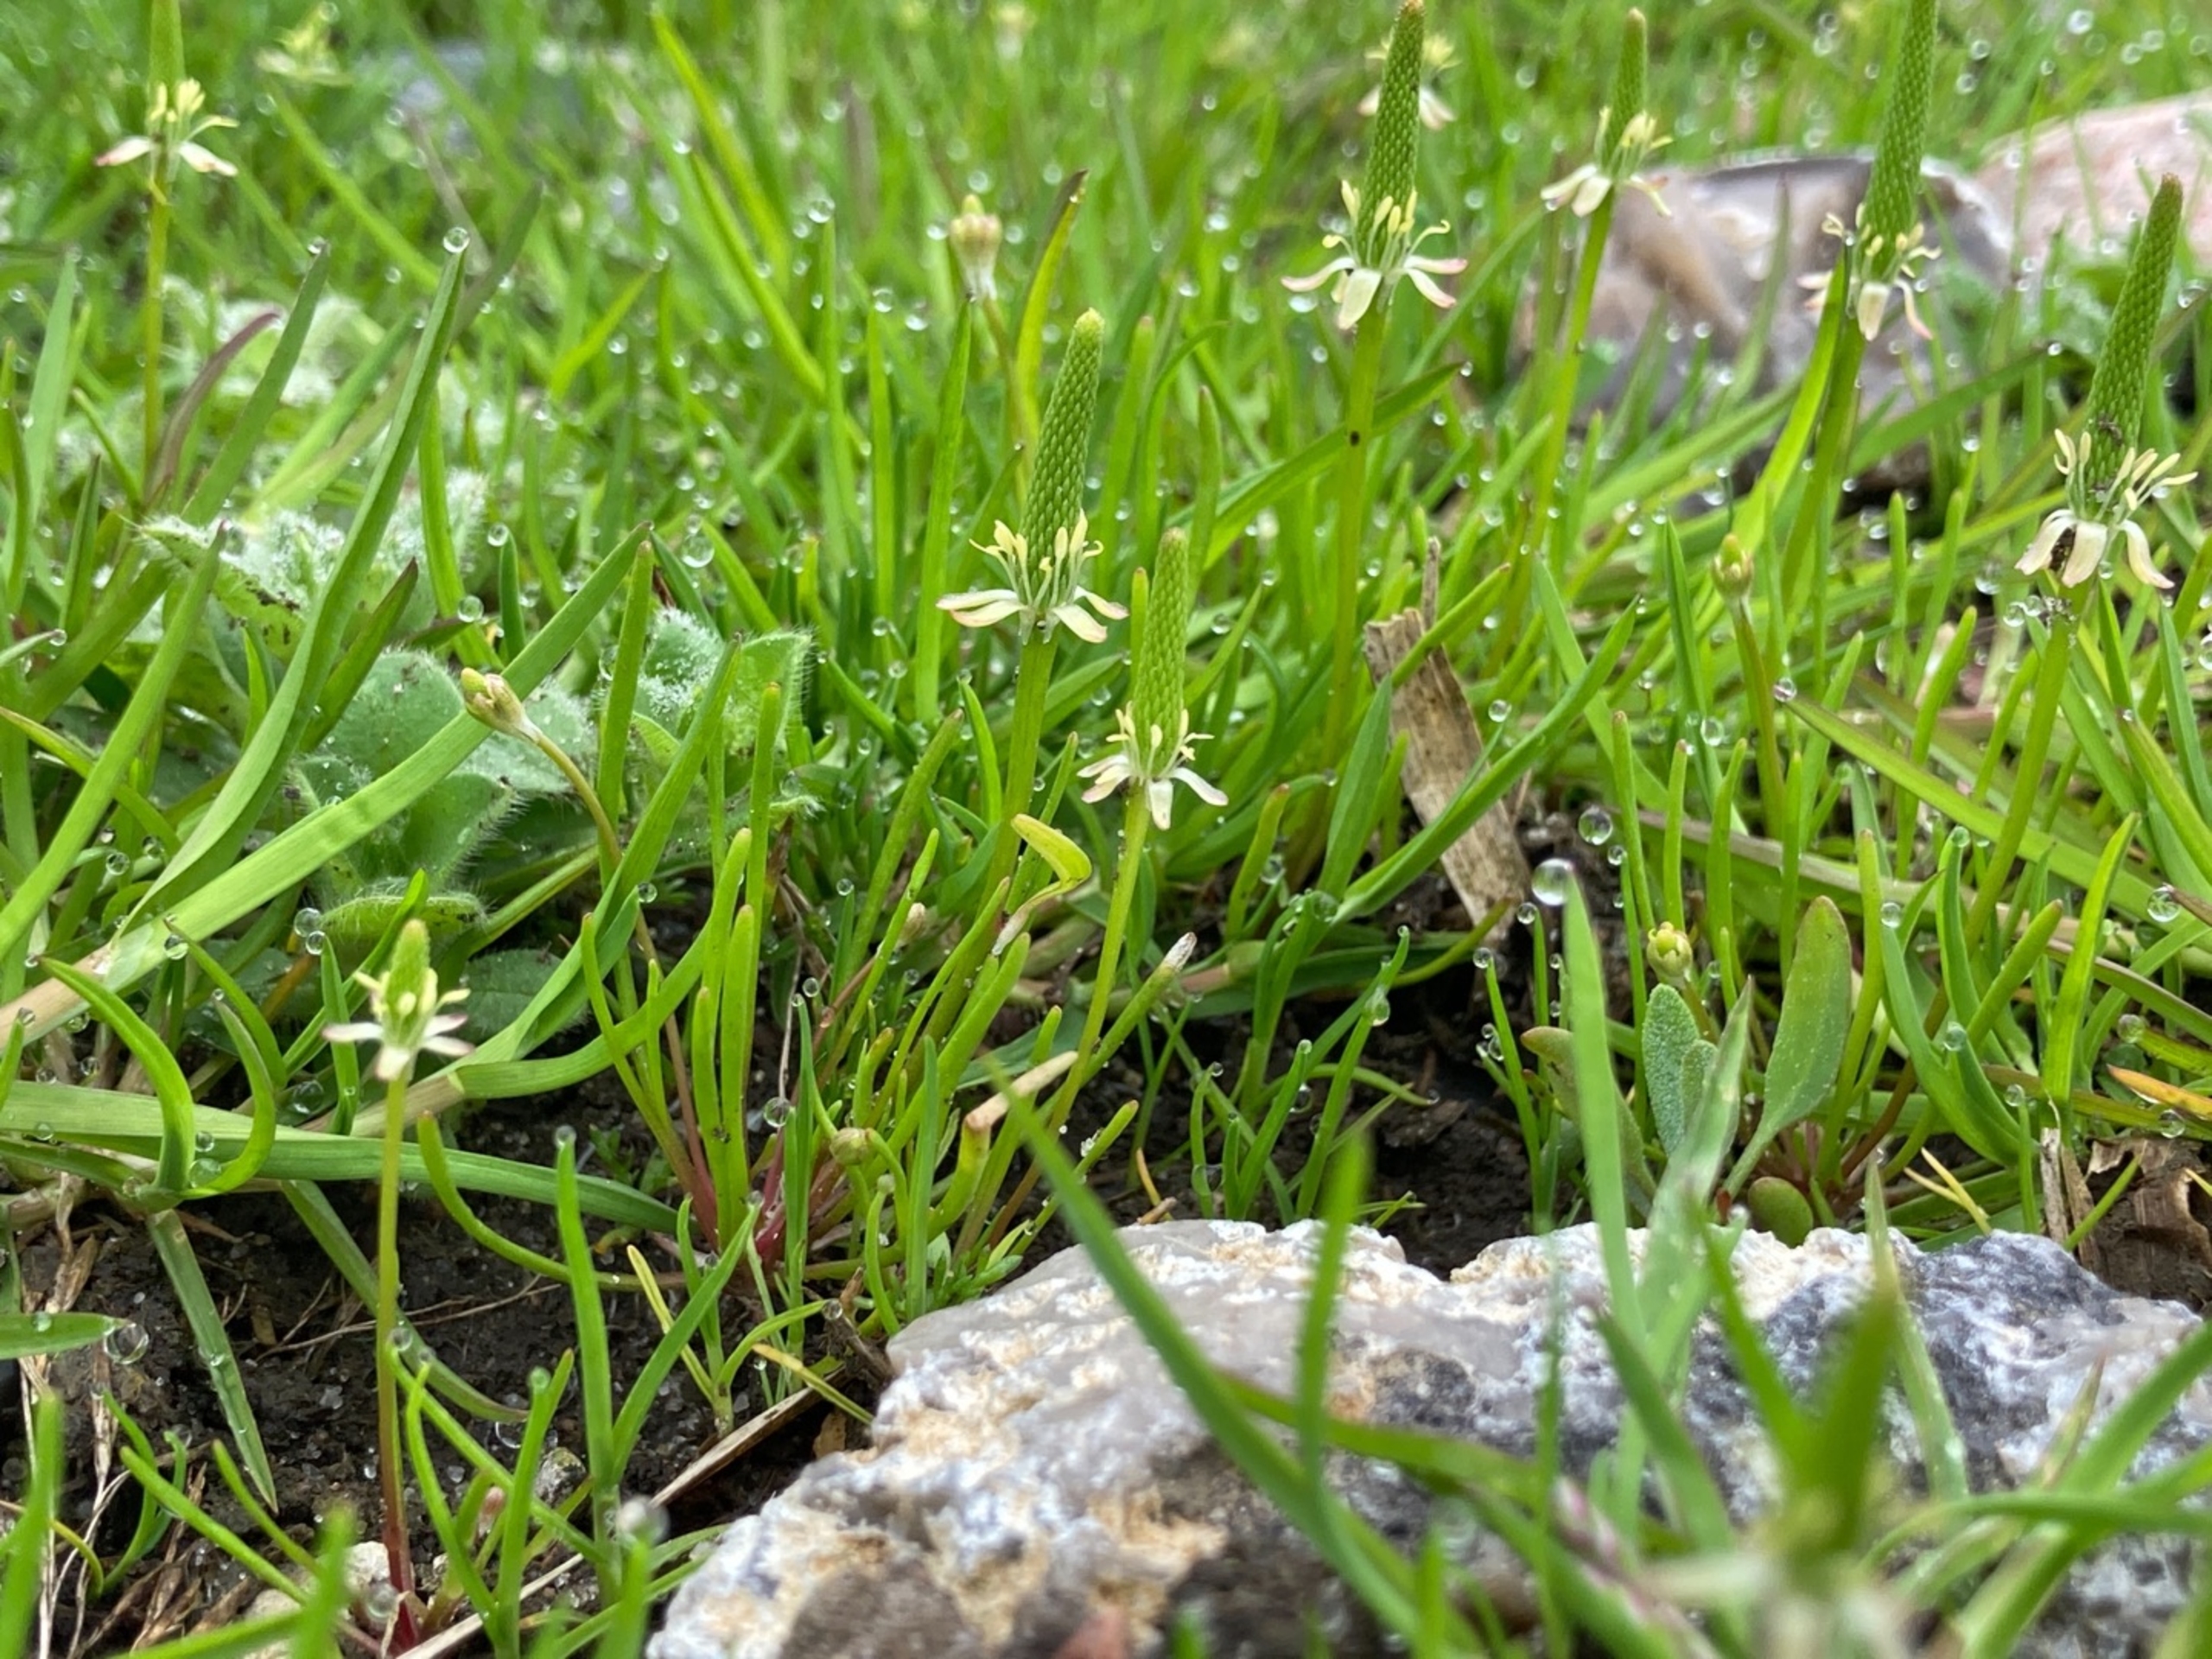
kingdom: Plantae
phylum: Tracheophyta
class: Magnoliopsida
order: Ranunculales
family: Ranunculaceae
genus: Myosurus
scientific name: Myosurus minimus
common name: Musehale
